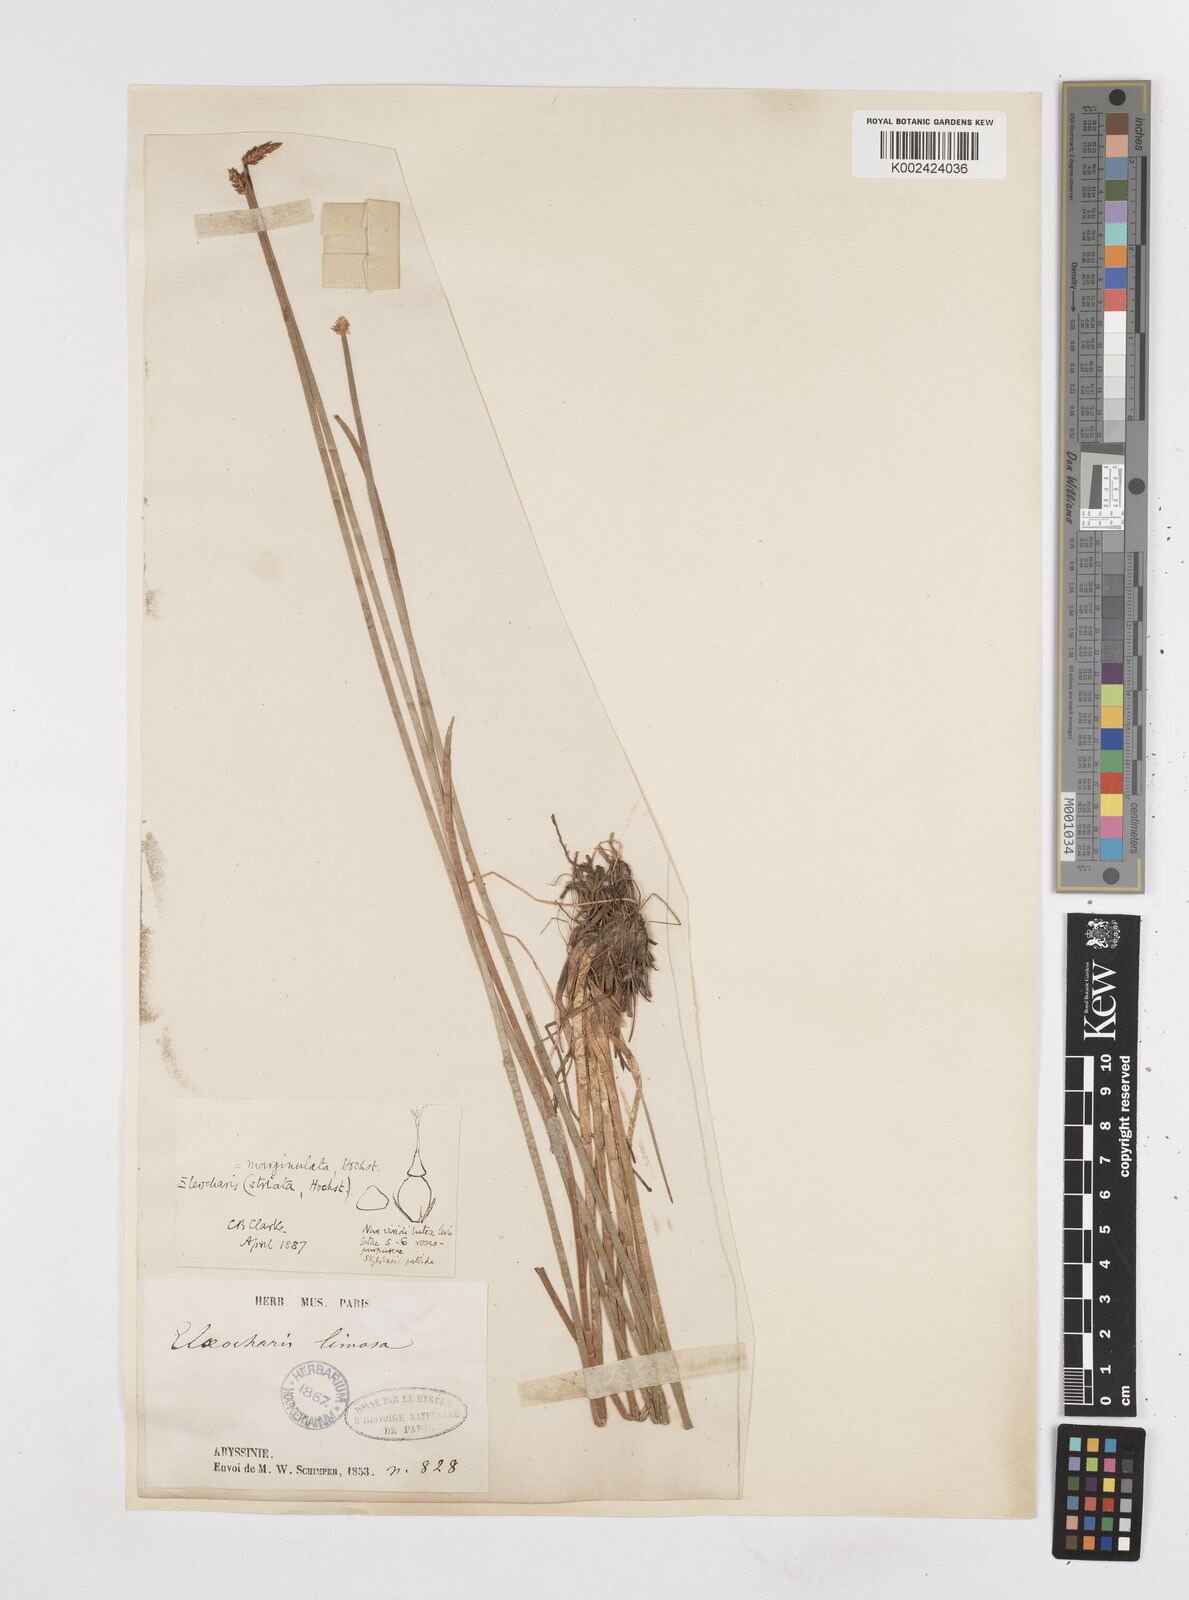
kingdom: Plantae
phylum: Tracheophyta
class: Liliopsida
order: Poales
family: Cyperaceae
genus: Eleocharis
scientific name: Eleocharis marginulata
